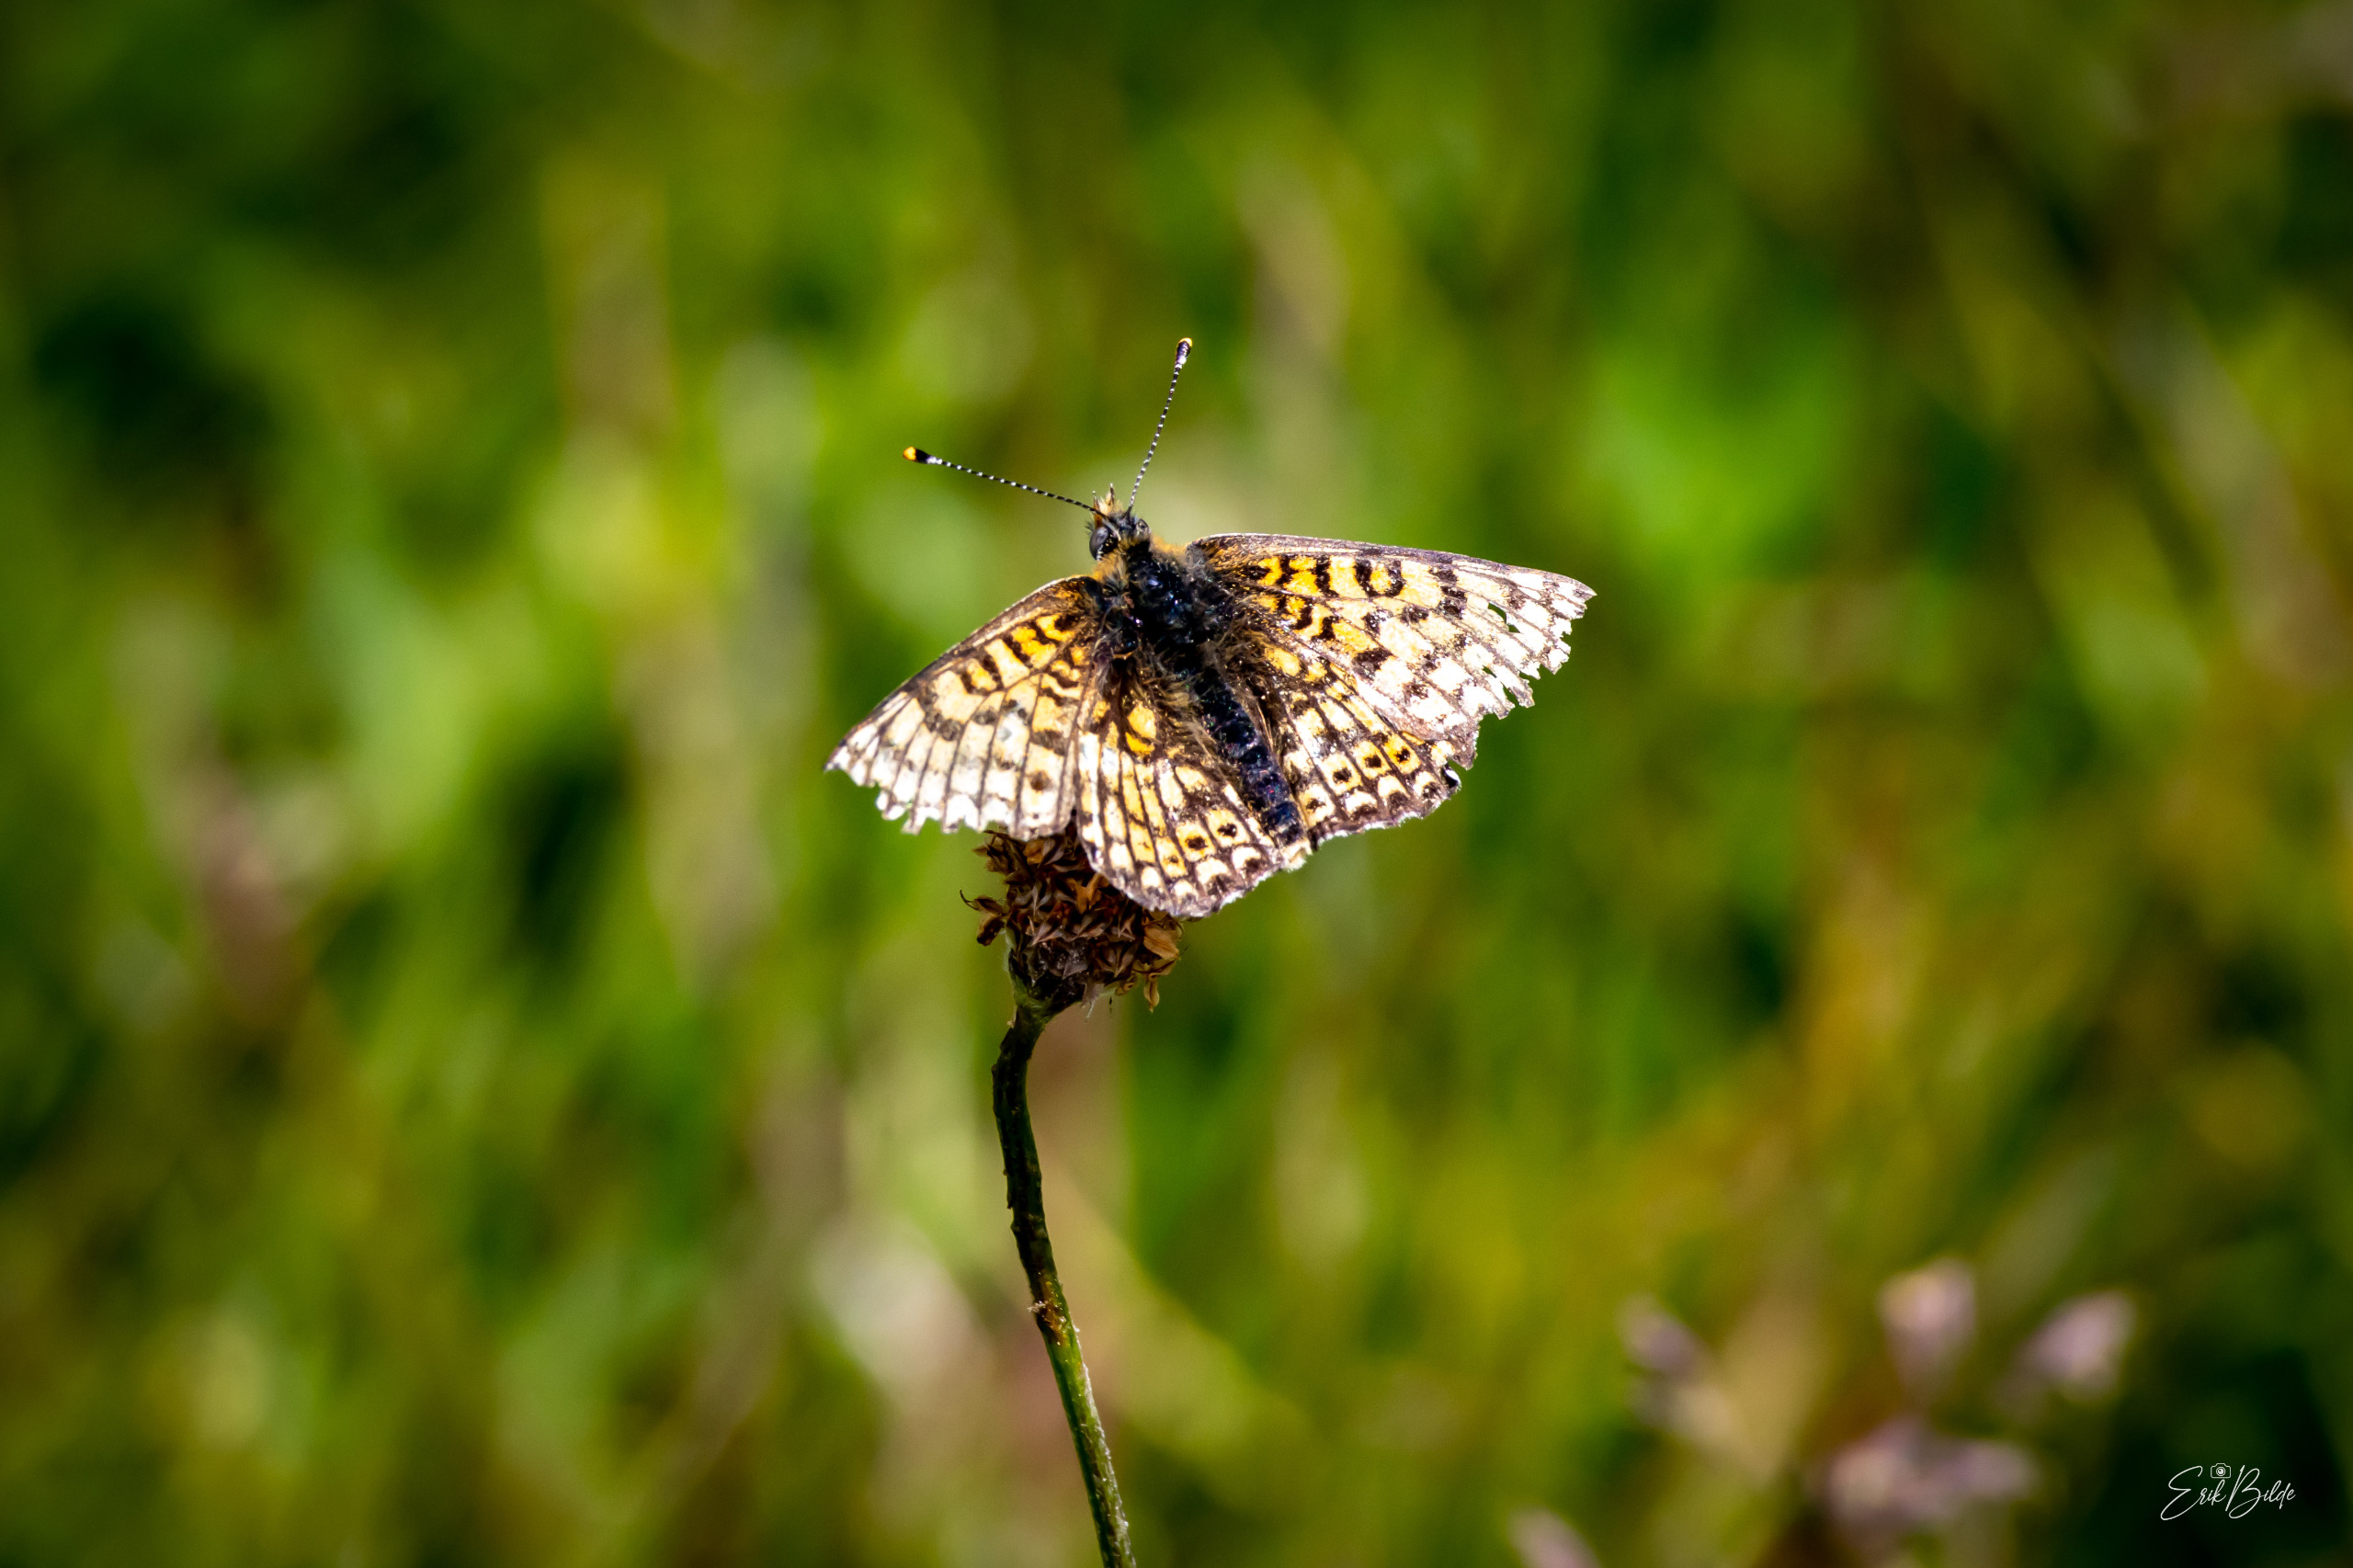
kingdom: Animalia
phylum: Arthropoda
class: Insecta
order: Lepidoptera
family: Nymphalidae
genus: Melitaea
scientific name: Melitaea cinxia
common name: Okkergul pletvinge
